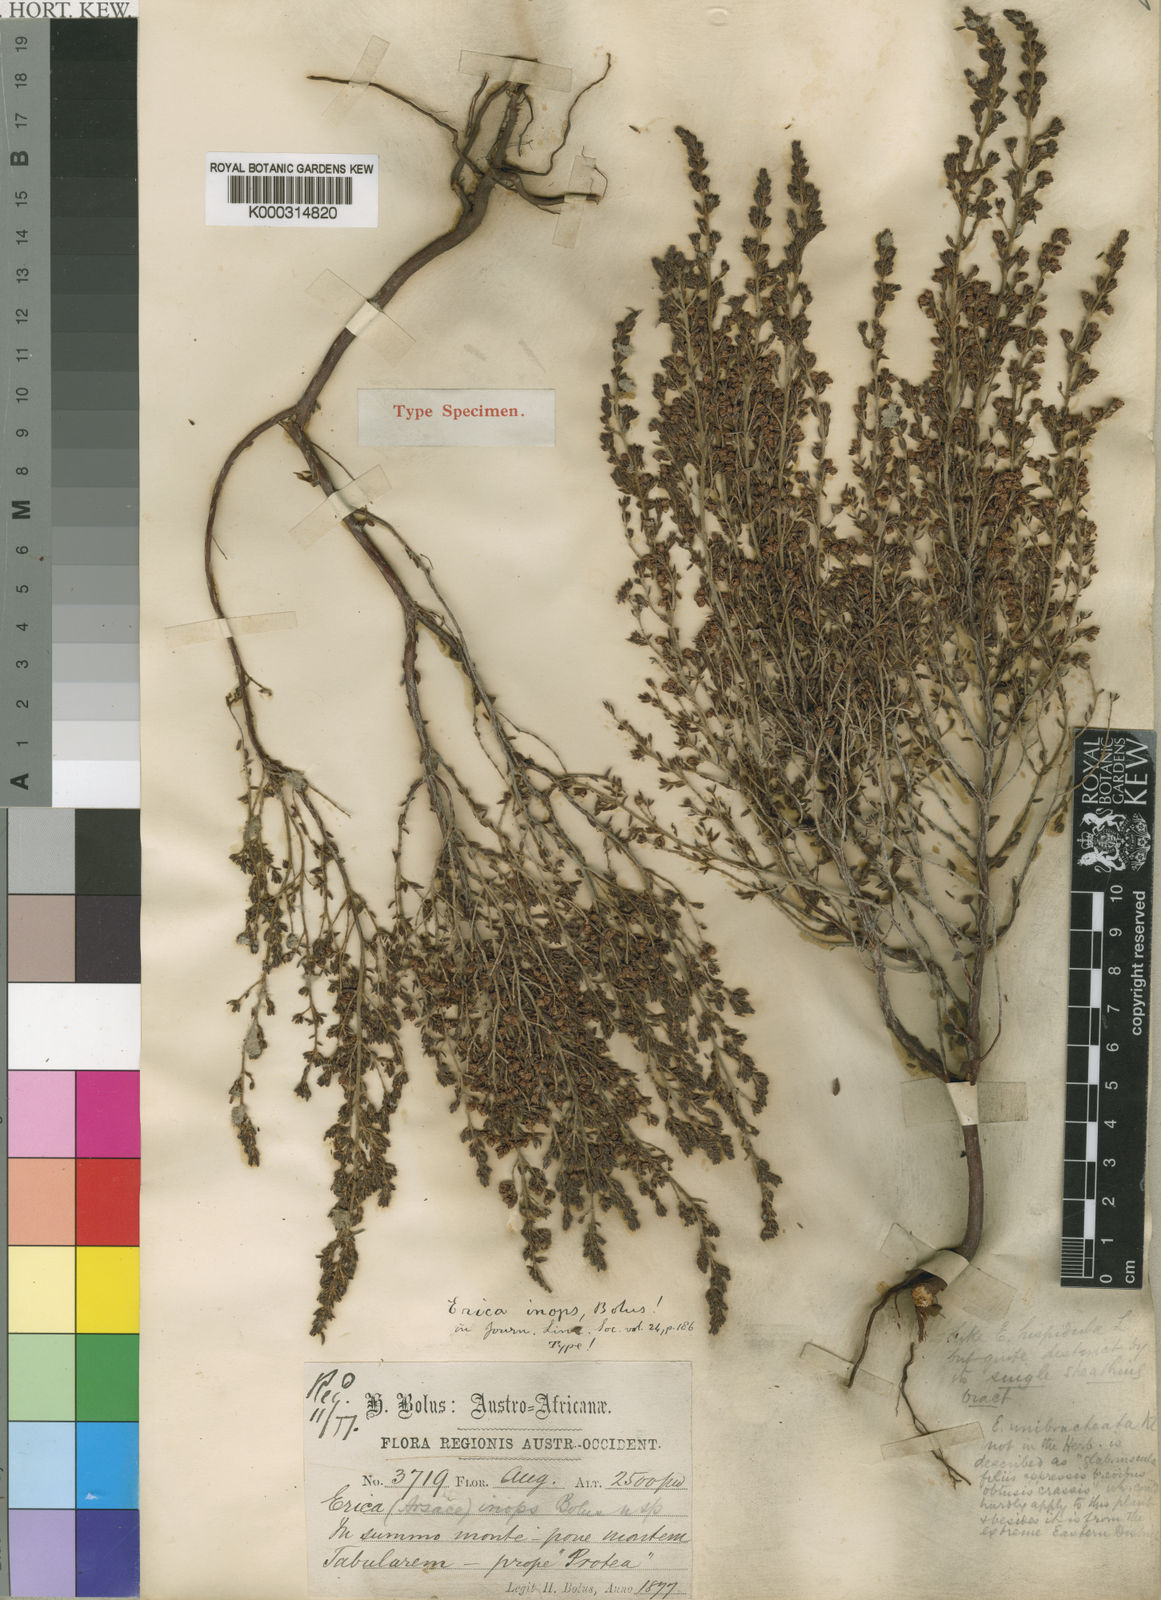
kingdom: Plantae
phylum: Tracheophyta
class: Magnoliopsida
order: Ericales
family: Ericaceae
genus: Erica
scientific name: Erica hispidula
